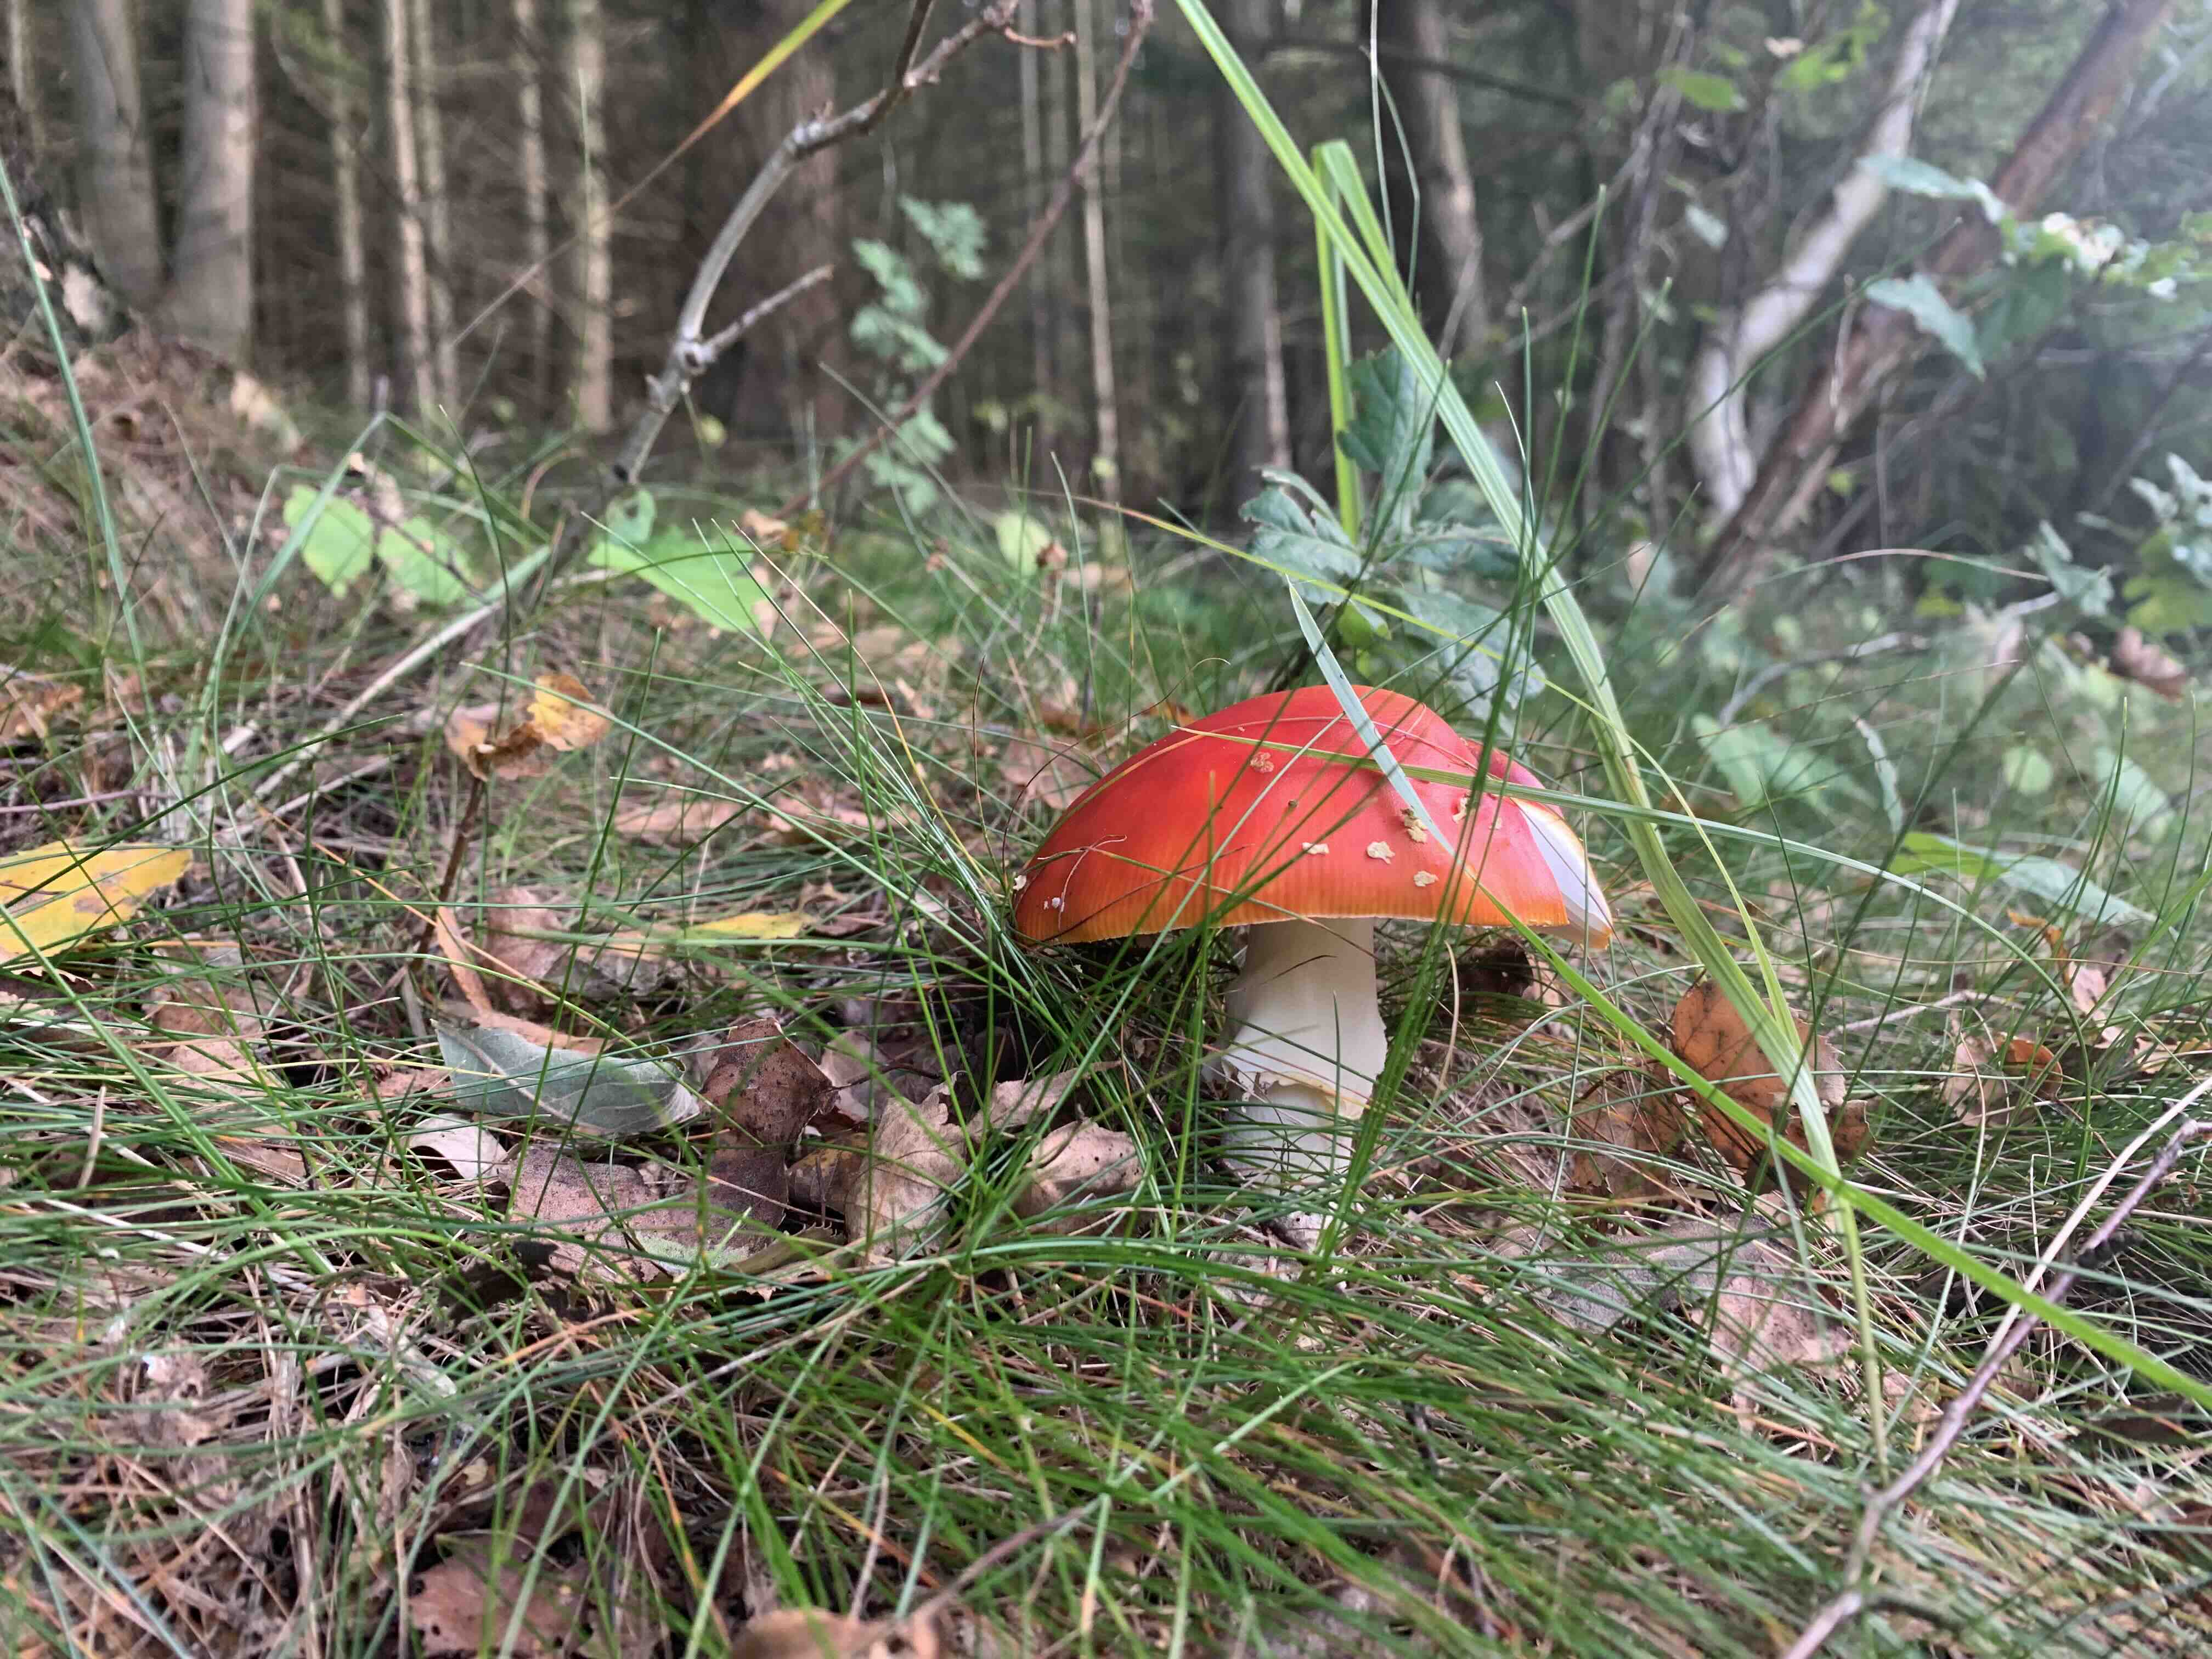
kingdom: Fungi
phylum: Basidiomycota
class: Agaricomycetes
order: Agaricales
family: Amanitaceae
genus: Amanita
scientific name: Amanita muscaria
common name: rød fluesvamp
